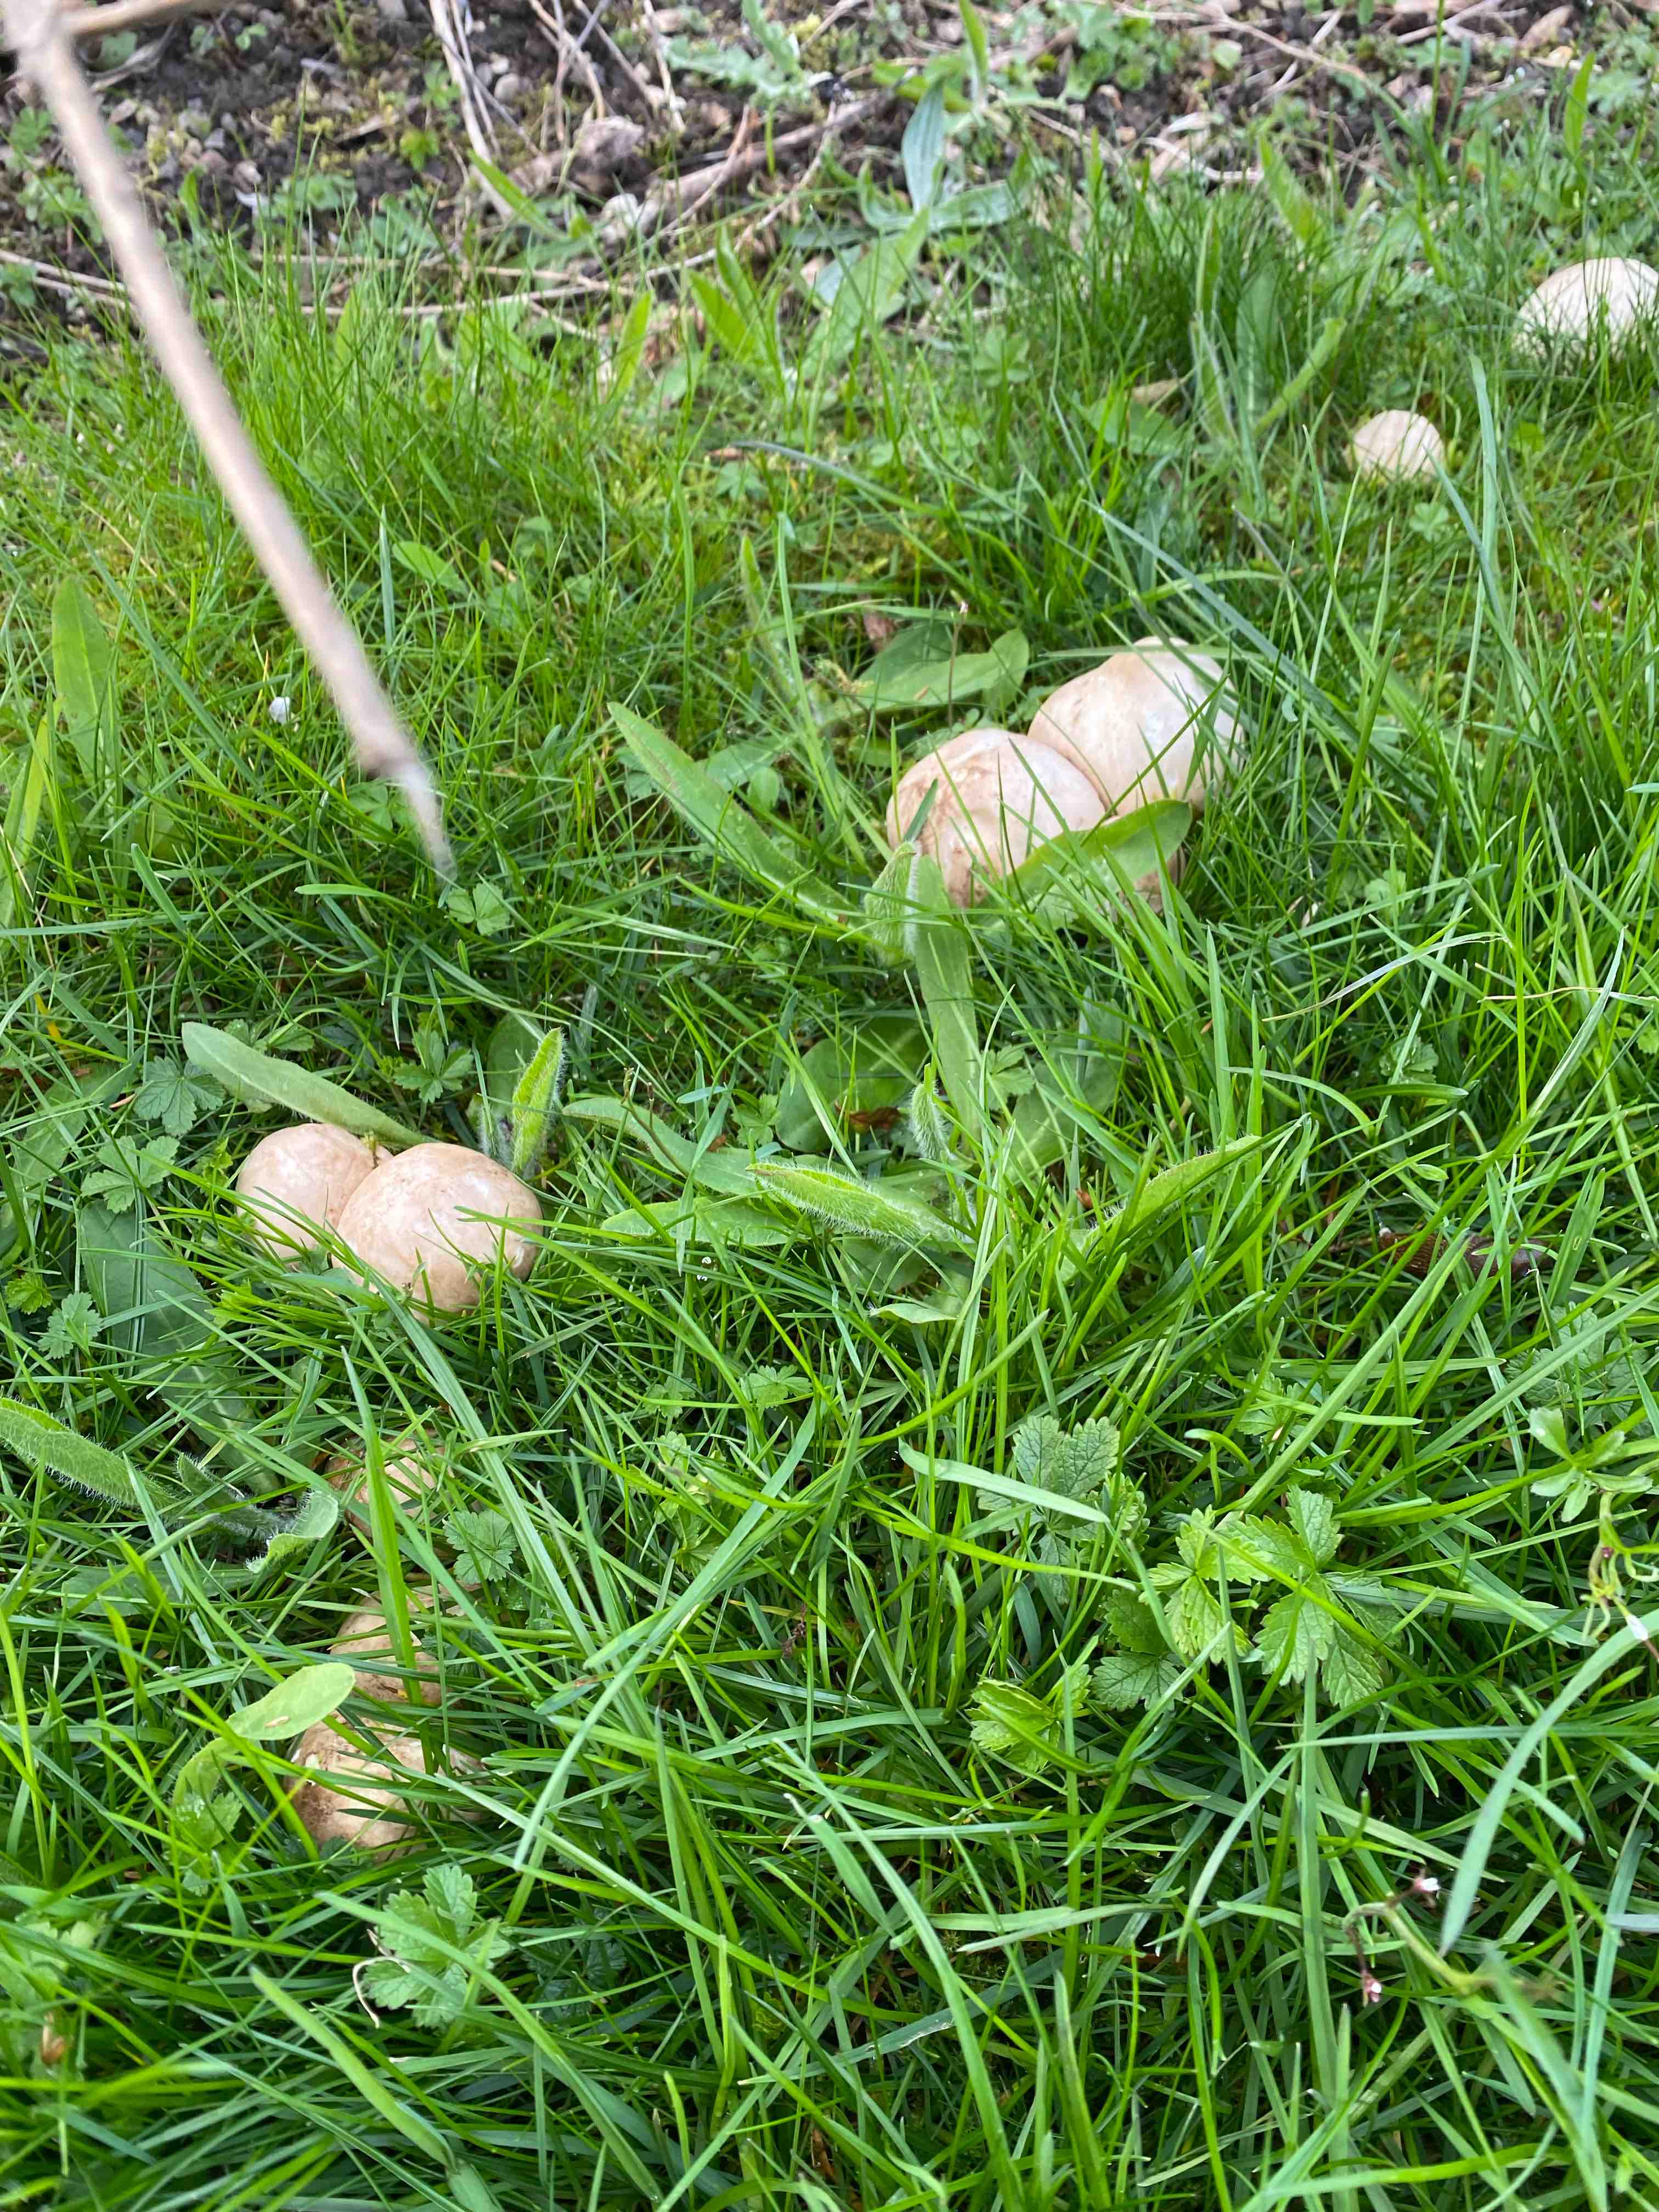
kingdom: Fungi
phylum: Basidiomycota
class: Agaricomycetes
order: Agaricales
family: Lyophyllaceae
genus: Calocybe
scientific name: Calocybe gambosa
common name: vårmusseron
